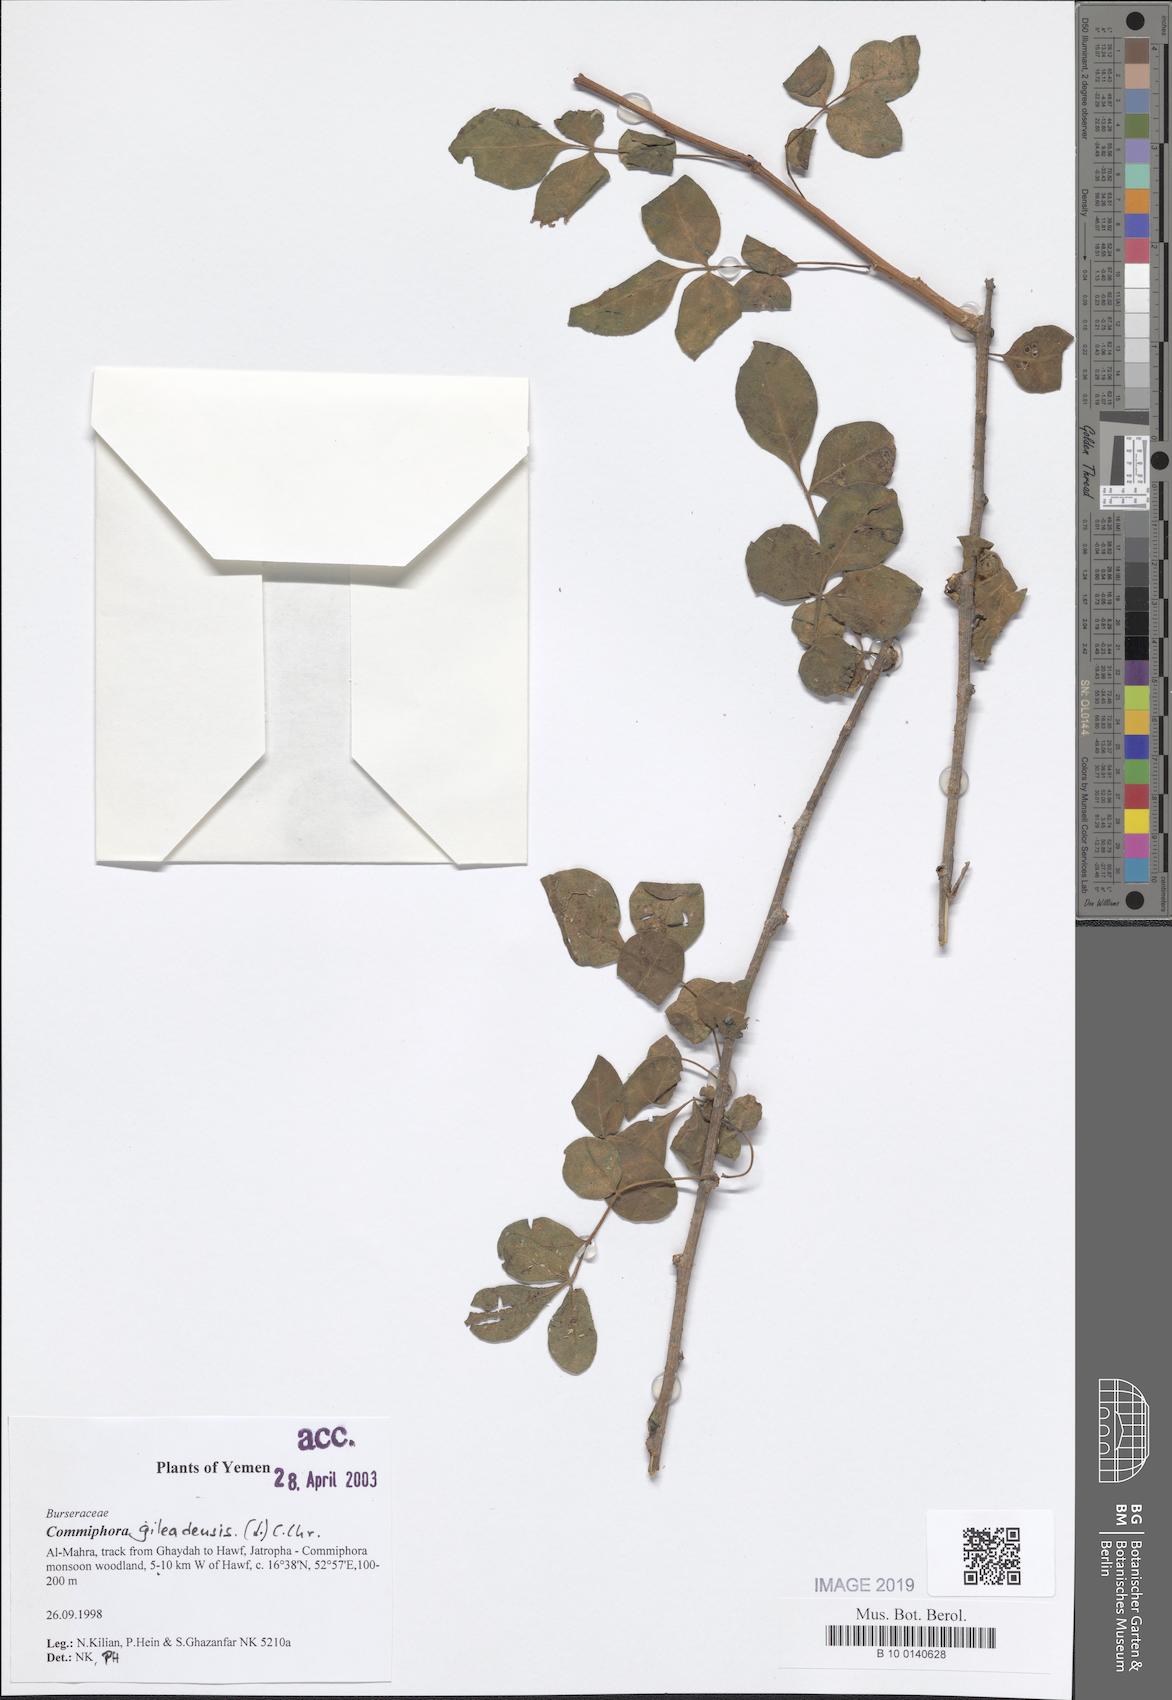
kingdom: Plantae
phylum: Tracheophyta
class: Magnoliopsida
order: Sapindales
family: Burseraceae
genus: Commiphora
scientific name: Commiphora gileadensis
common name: Balm-of-gilead
